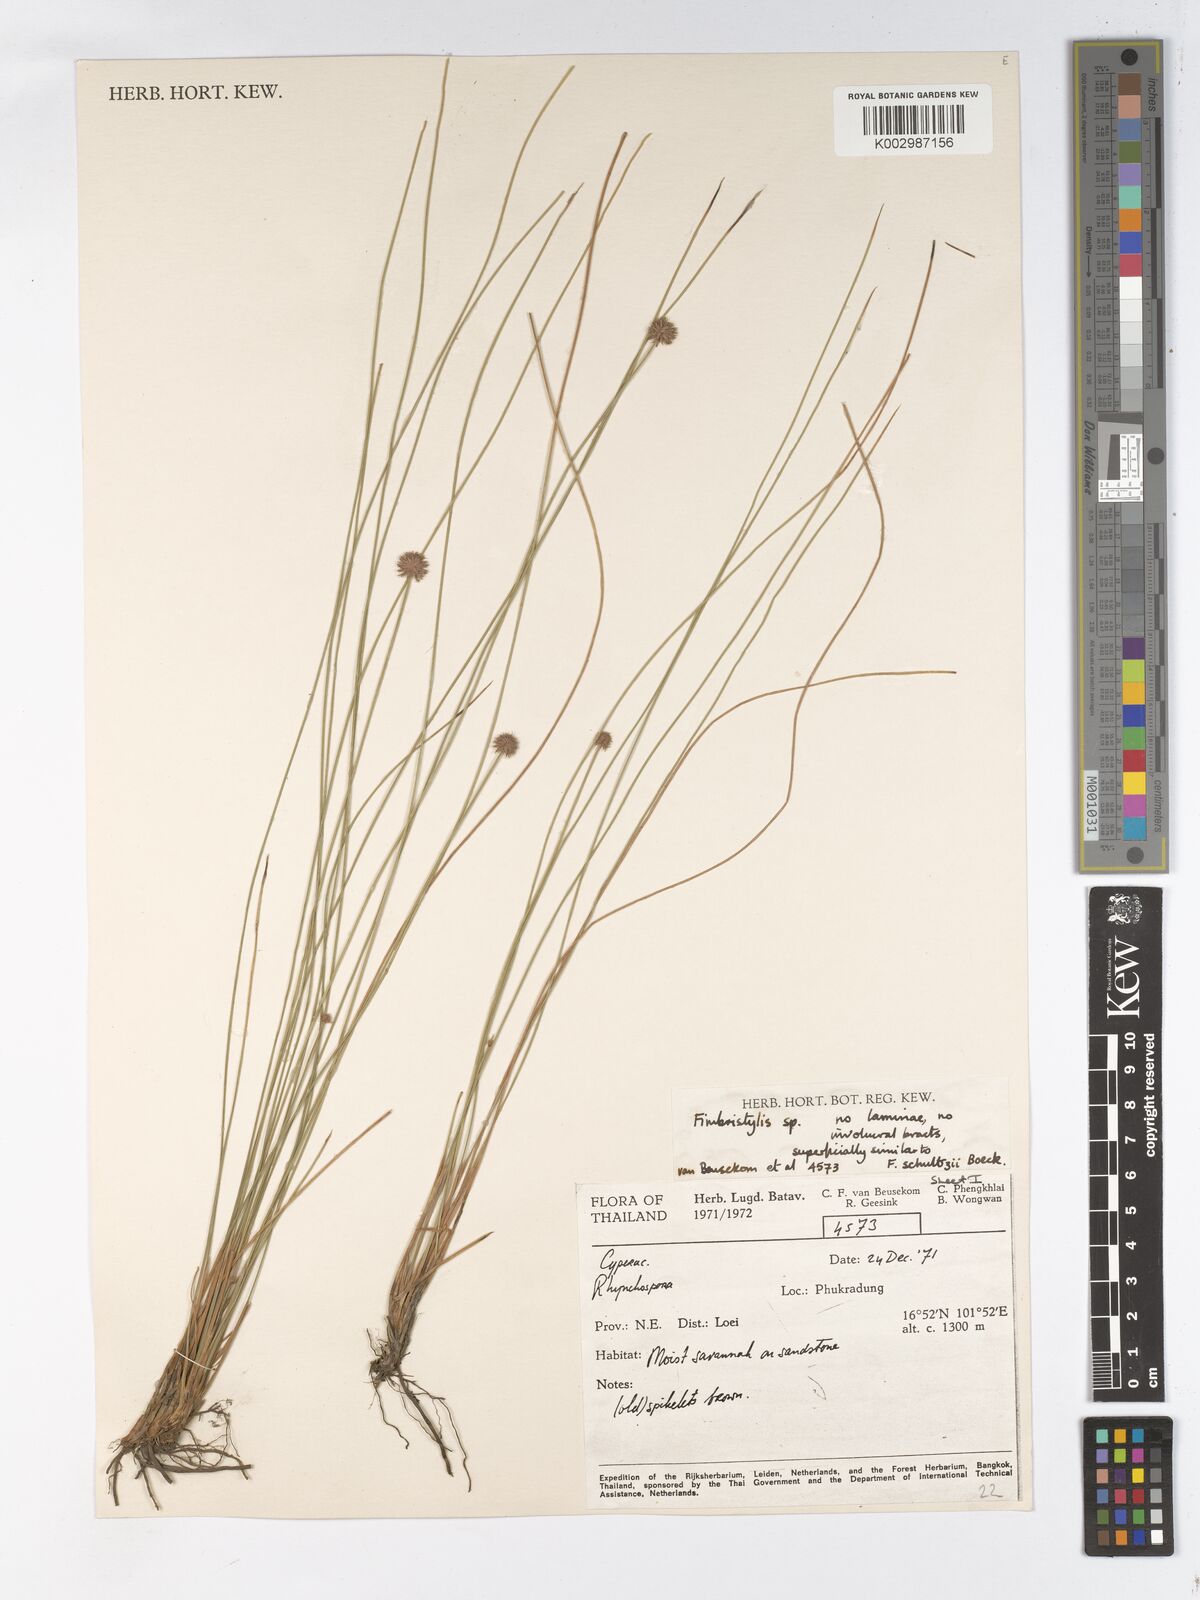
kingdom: Plantae
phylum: Tracheophyta
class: Liliopsida
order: Poales
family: Cyperaceae
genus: Actinoschoenus
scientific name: Actinoschoenus aphyllus
